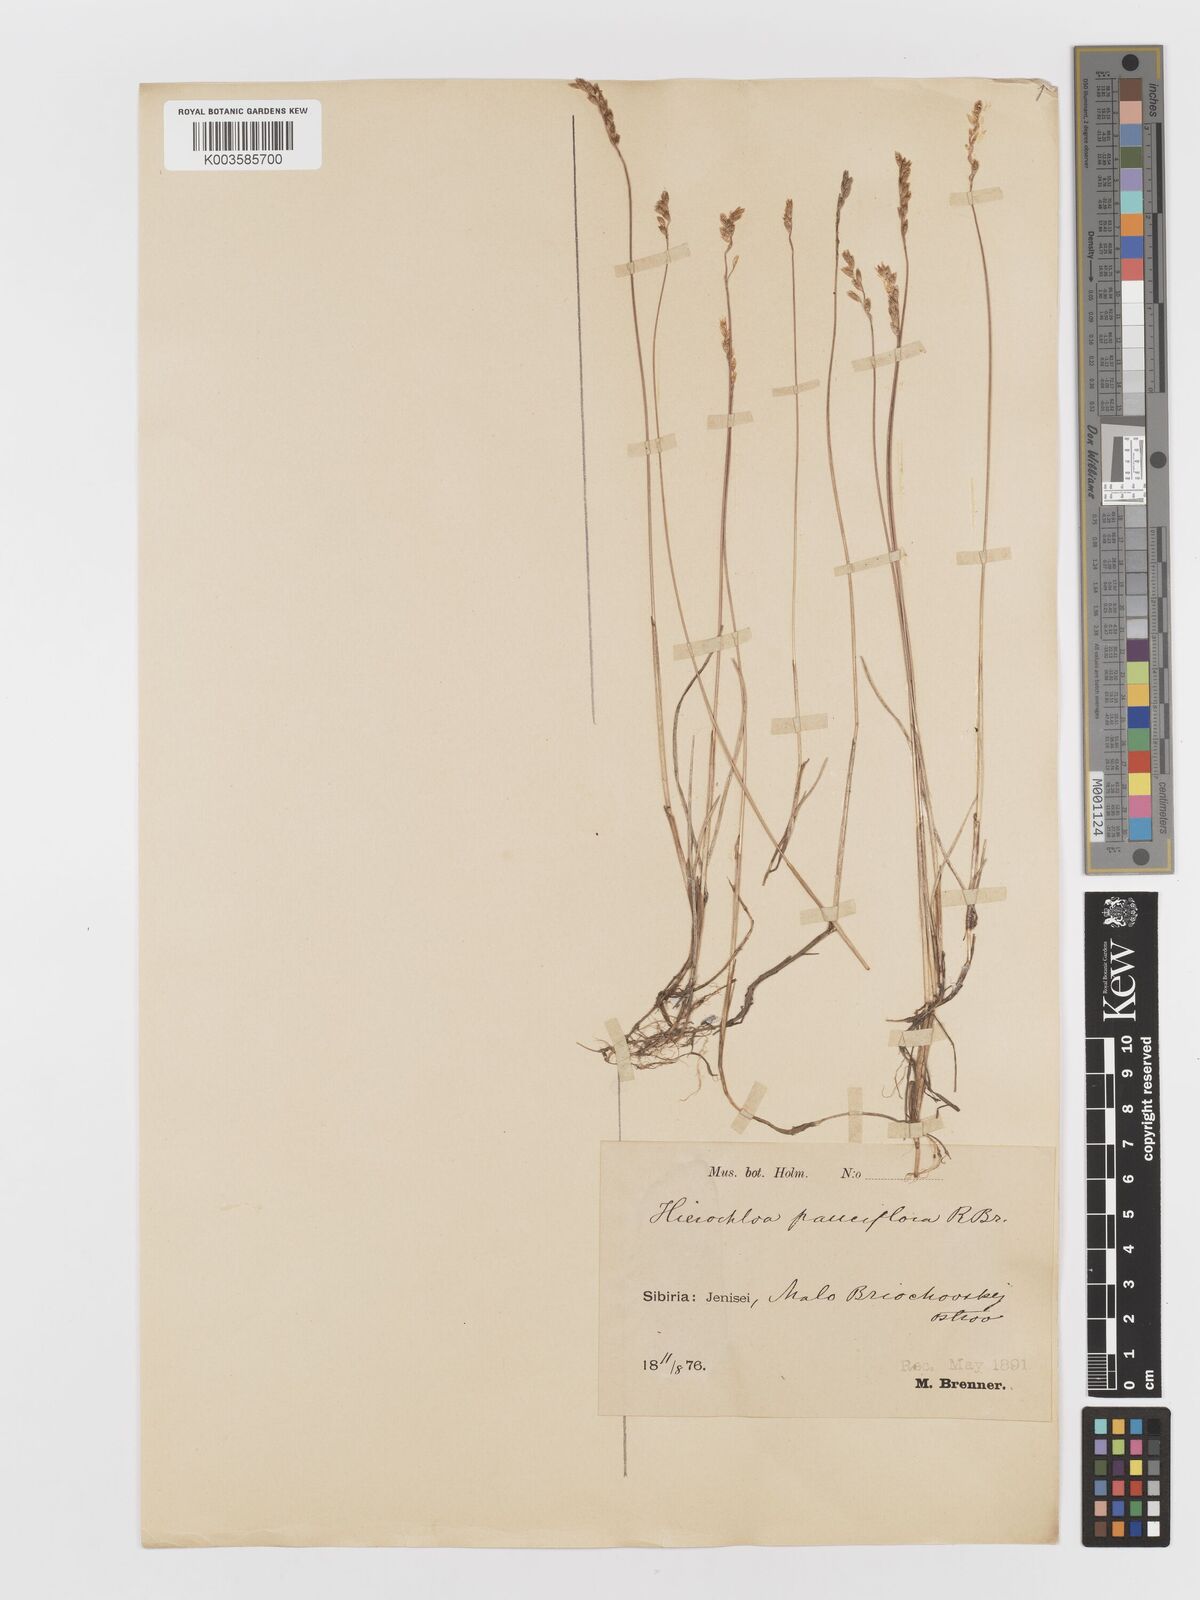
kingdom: Plantae
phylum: Tracheophyta
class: Liliopsida
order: Poales
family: Poaceae
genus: Anthoxanthum
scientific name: Anthoxanthum arcticum
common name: Arctic sweetgrass
